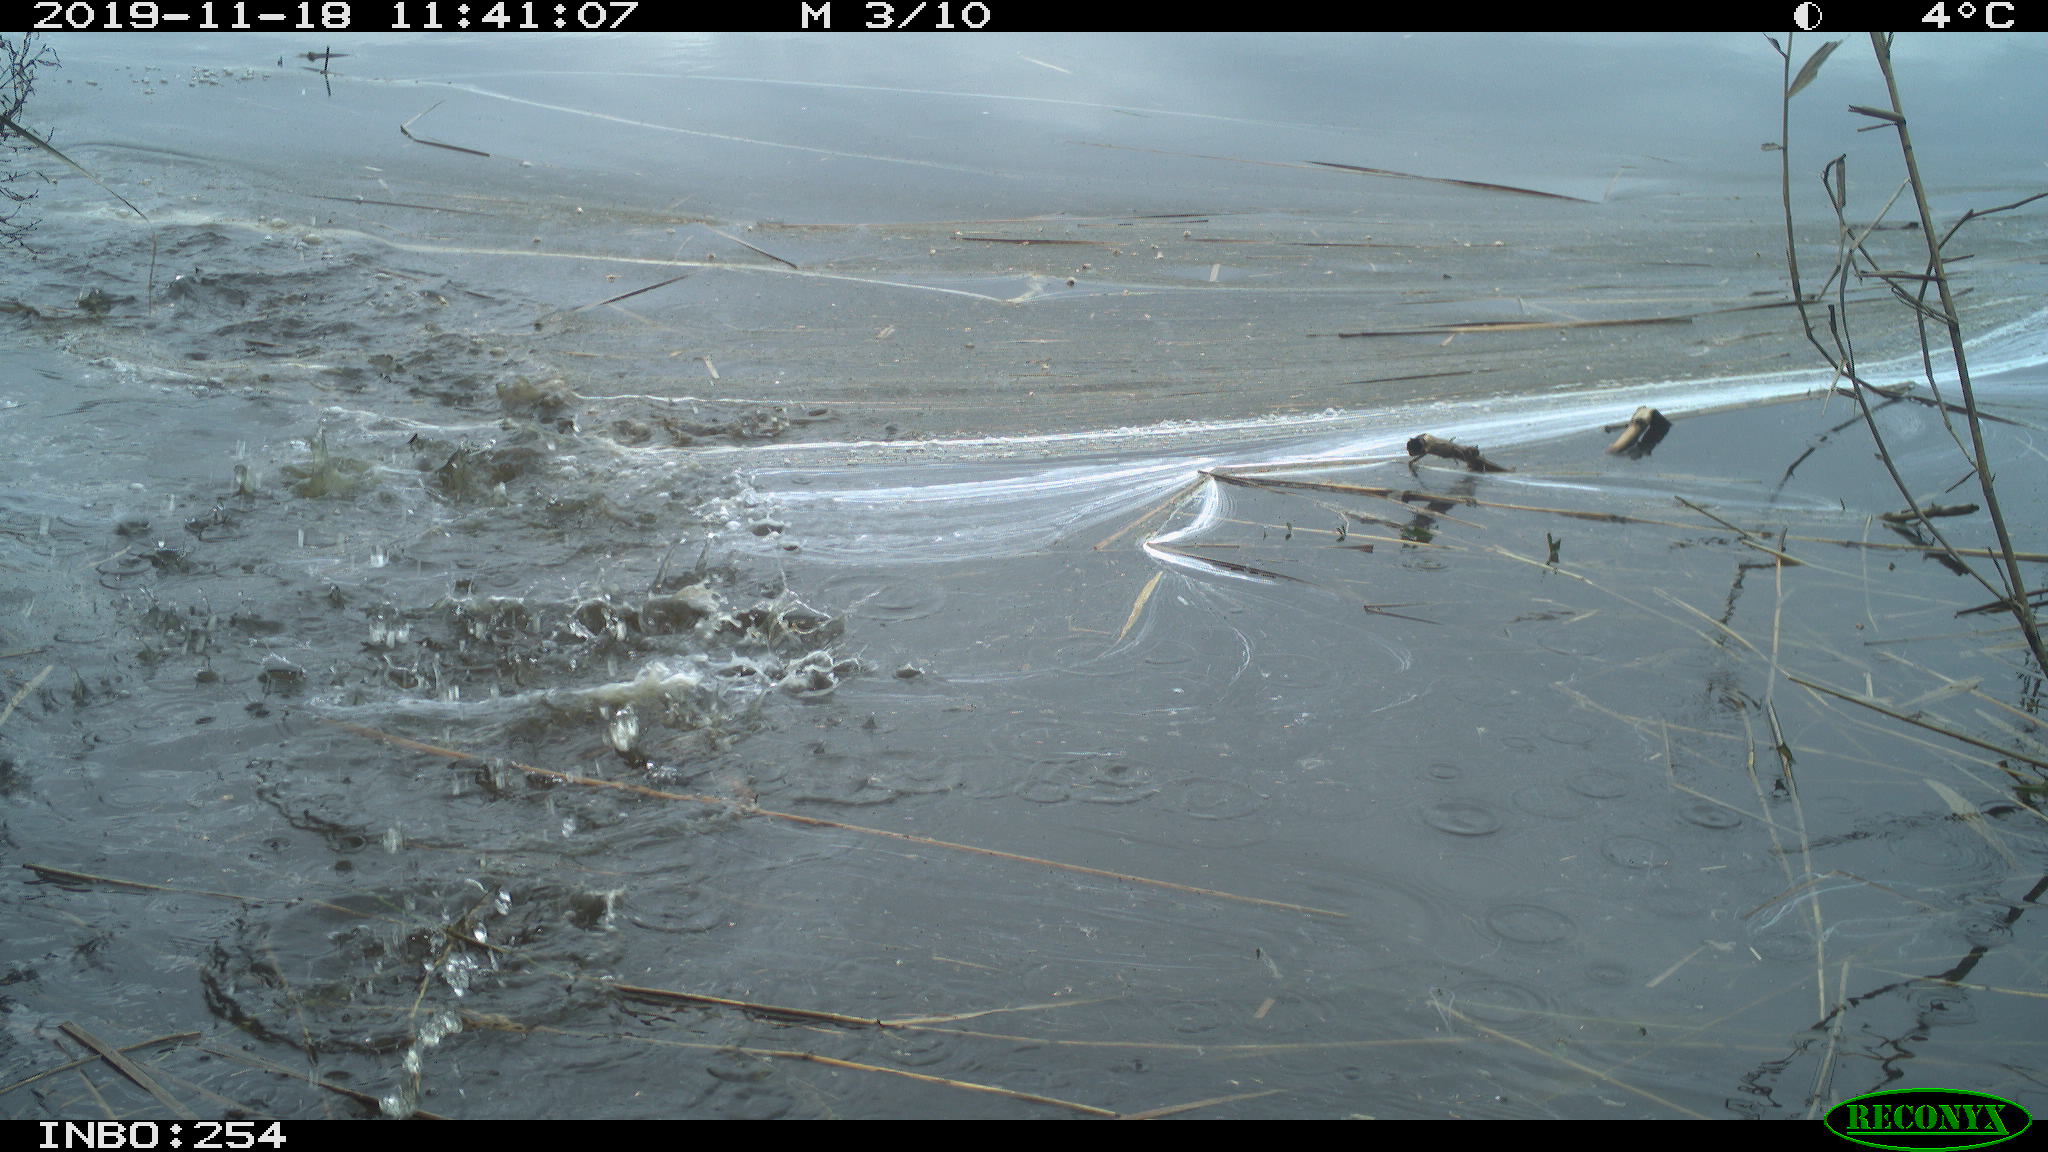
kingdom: Animalia
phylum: Chordata
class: Aves
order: Gruiformes
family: Rallidae
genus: Gallinula
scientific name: Gallinula chloropus
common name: Common moorhen
